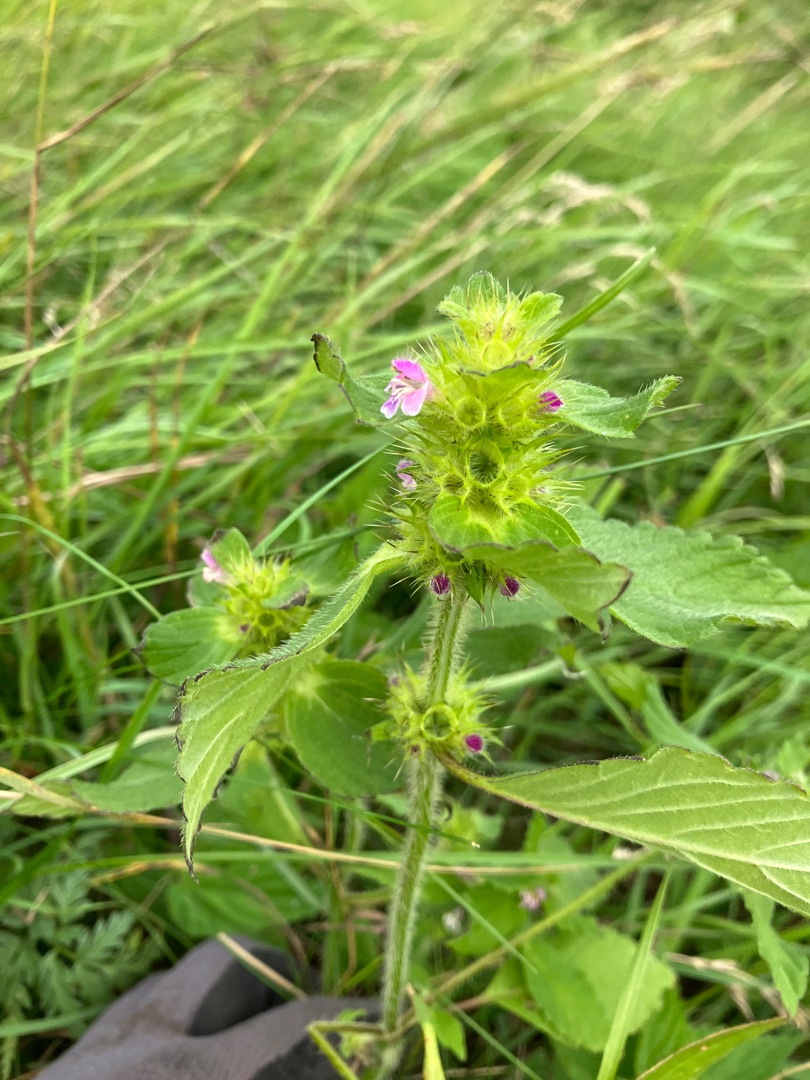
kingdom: Plantae
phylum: Tracheophyta
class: Magnoliopsida
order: Lamiales
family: Lamiaceae
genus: Galeopsis
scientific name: Galeopsis bifida
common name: Skov-hanekro
